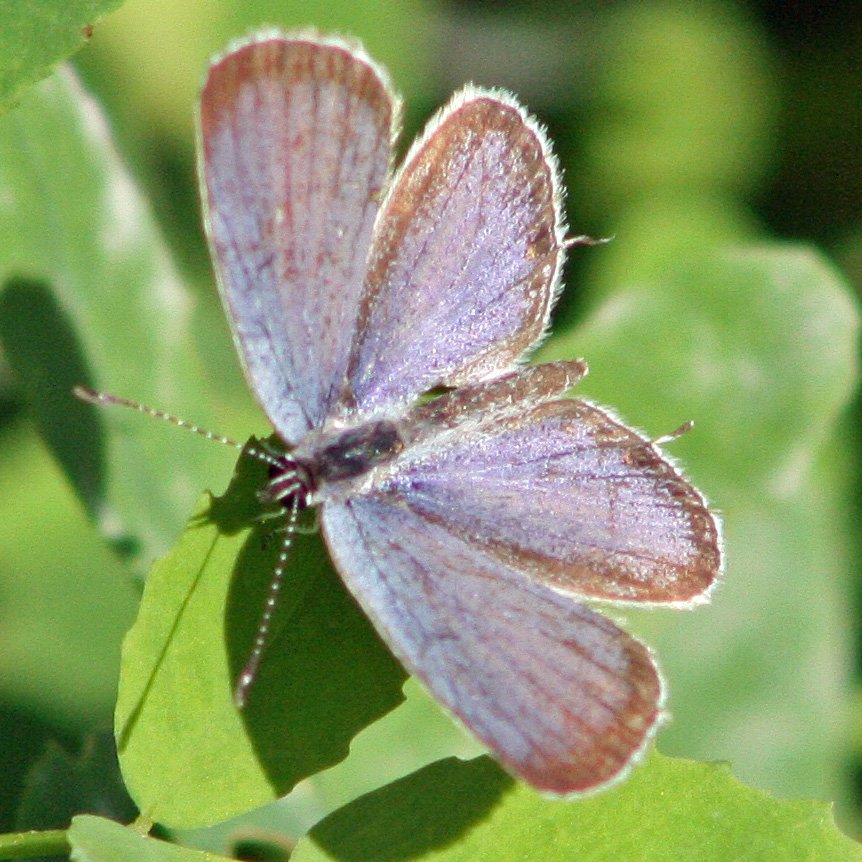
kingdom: Animalia
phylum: Arthropoda
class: Insecta
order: Lepidoptera
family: Lycaenidae
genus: Elkalyce
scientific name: Elkalyce comyntas
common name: Eastern Tailed-Blue
